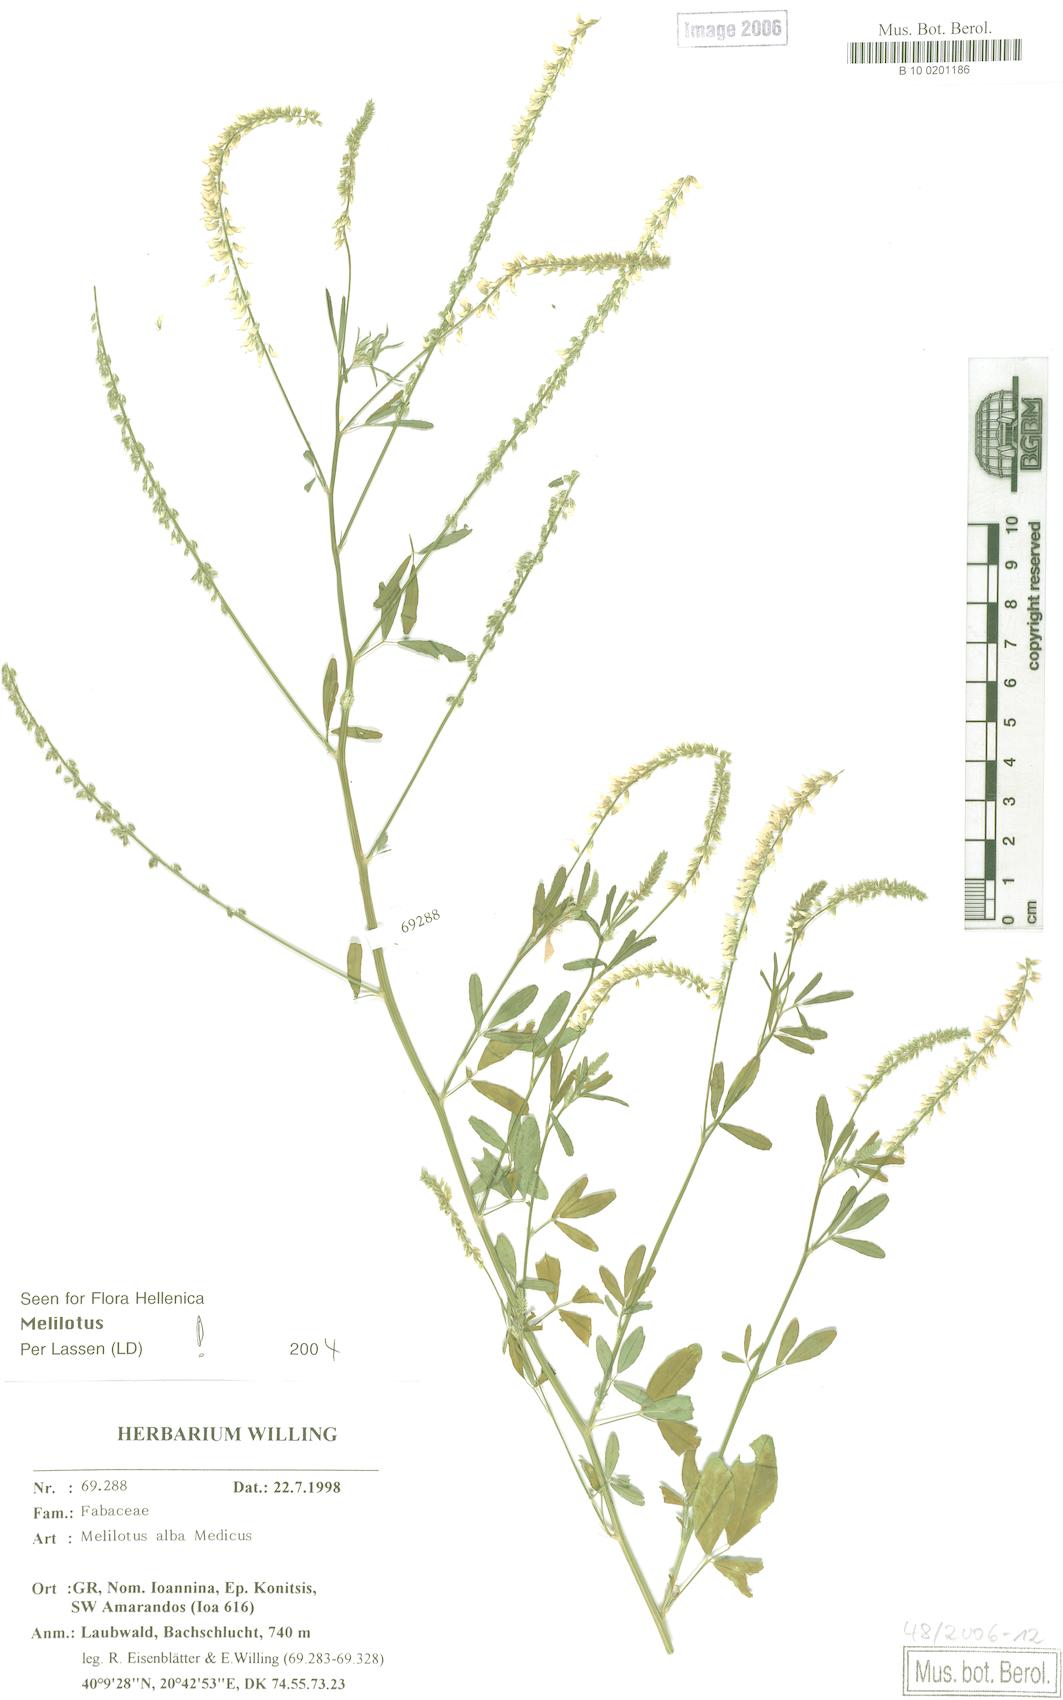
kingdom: Plantae
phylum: Tracheophyta
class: Magnoliopsida
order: Fabales
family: Fabaceae
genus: Melilotus
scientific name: Melilotus albus
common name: White melilot
